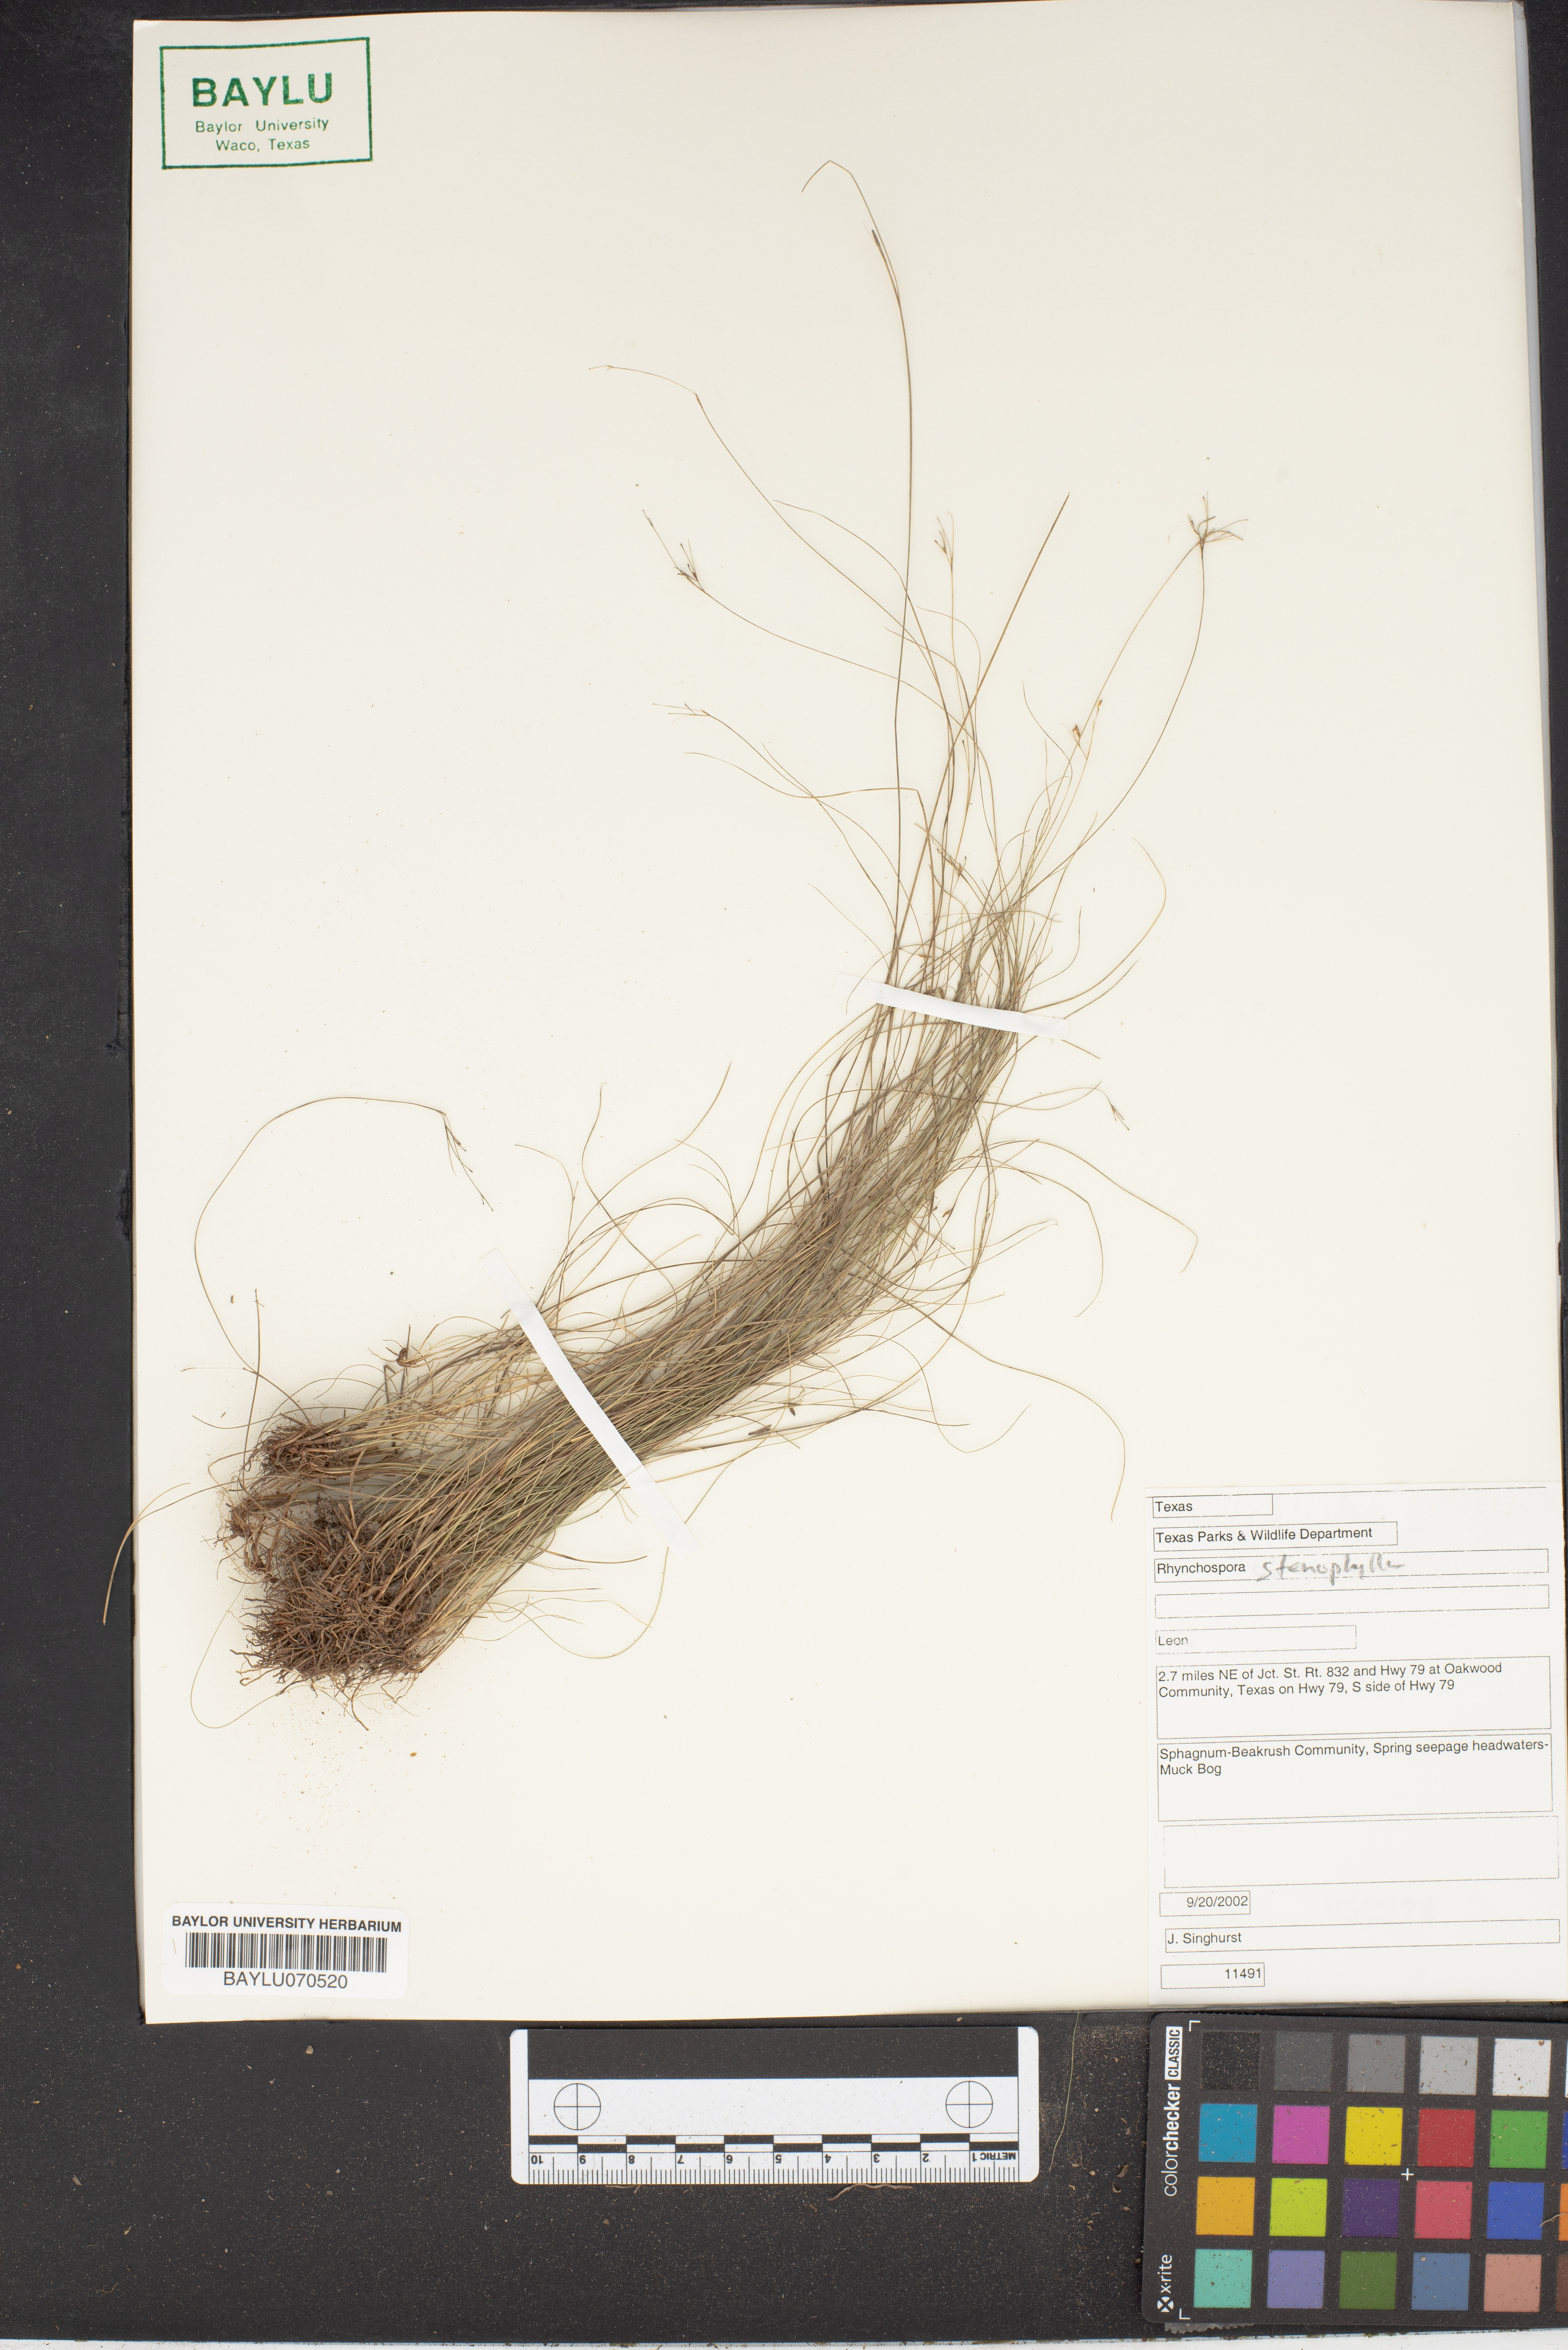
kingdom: Plantae
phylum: Tracheophyta
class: Liliopsida
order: Poales
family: Cyperaceae
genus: Rhynchospora
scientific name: Rhynchospora stenophylla
